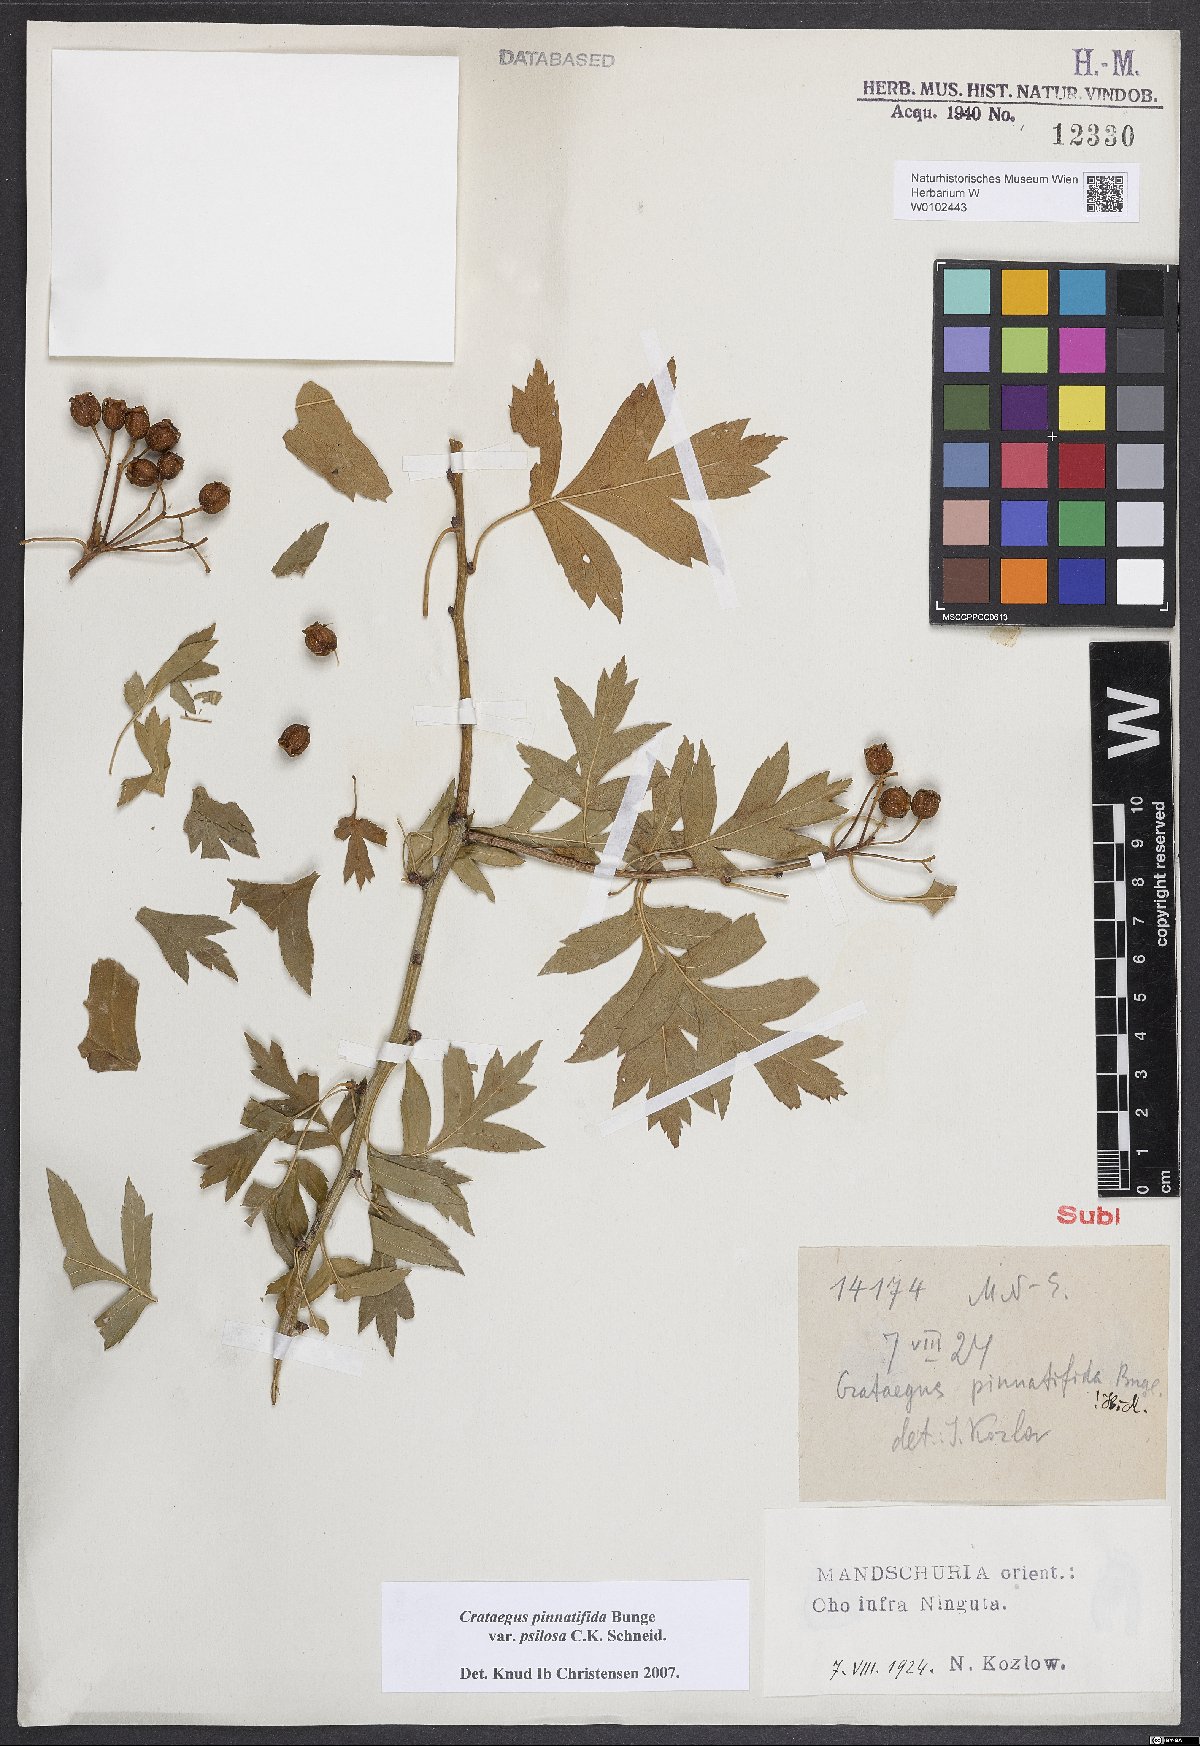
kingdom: Plantae
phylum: Tracheophyta
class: Magnoliopsida
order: Rosales
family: Rosaceae
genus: Crataegus
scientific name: Crataegus pinnatifida
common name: Chinese haw
